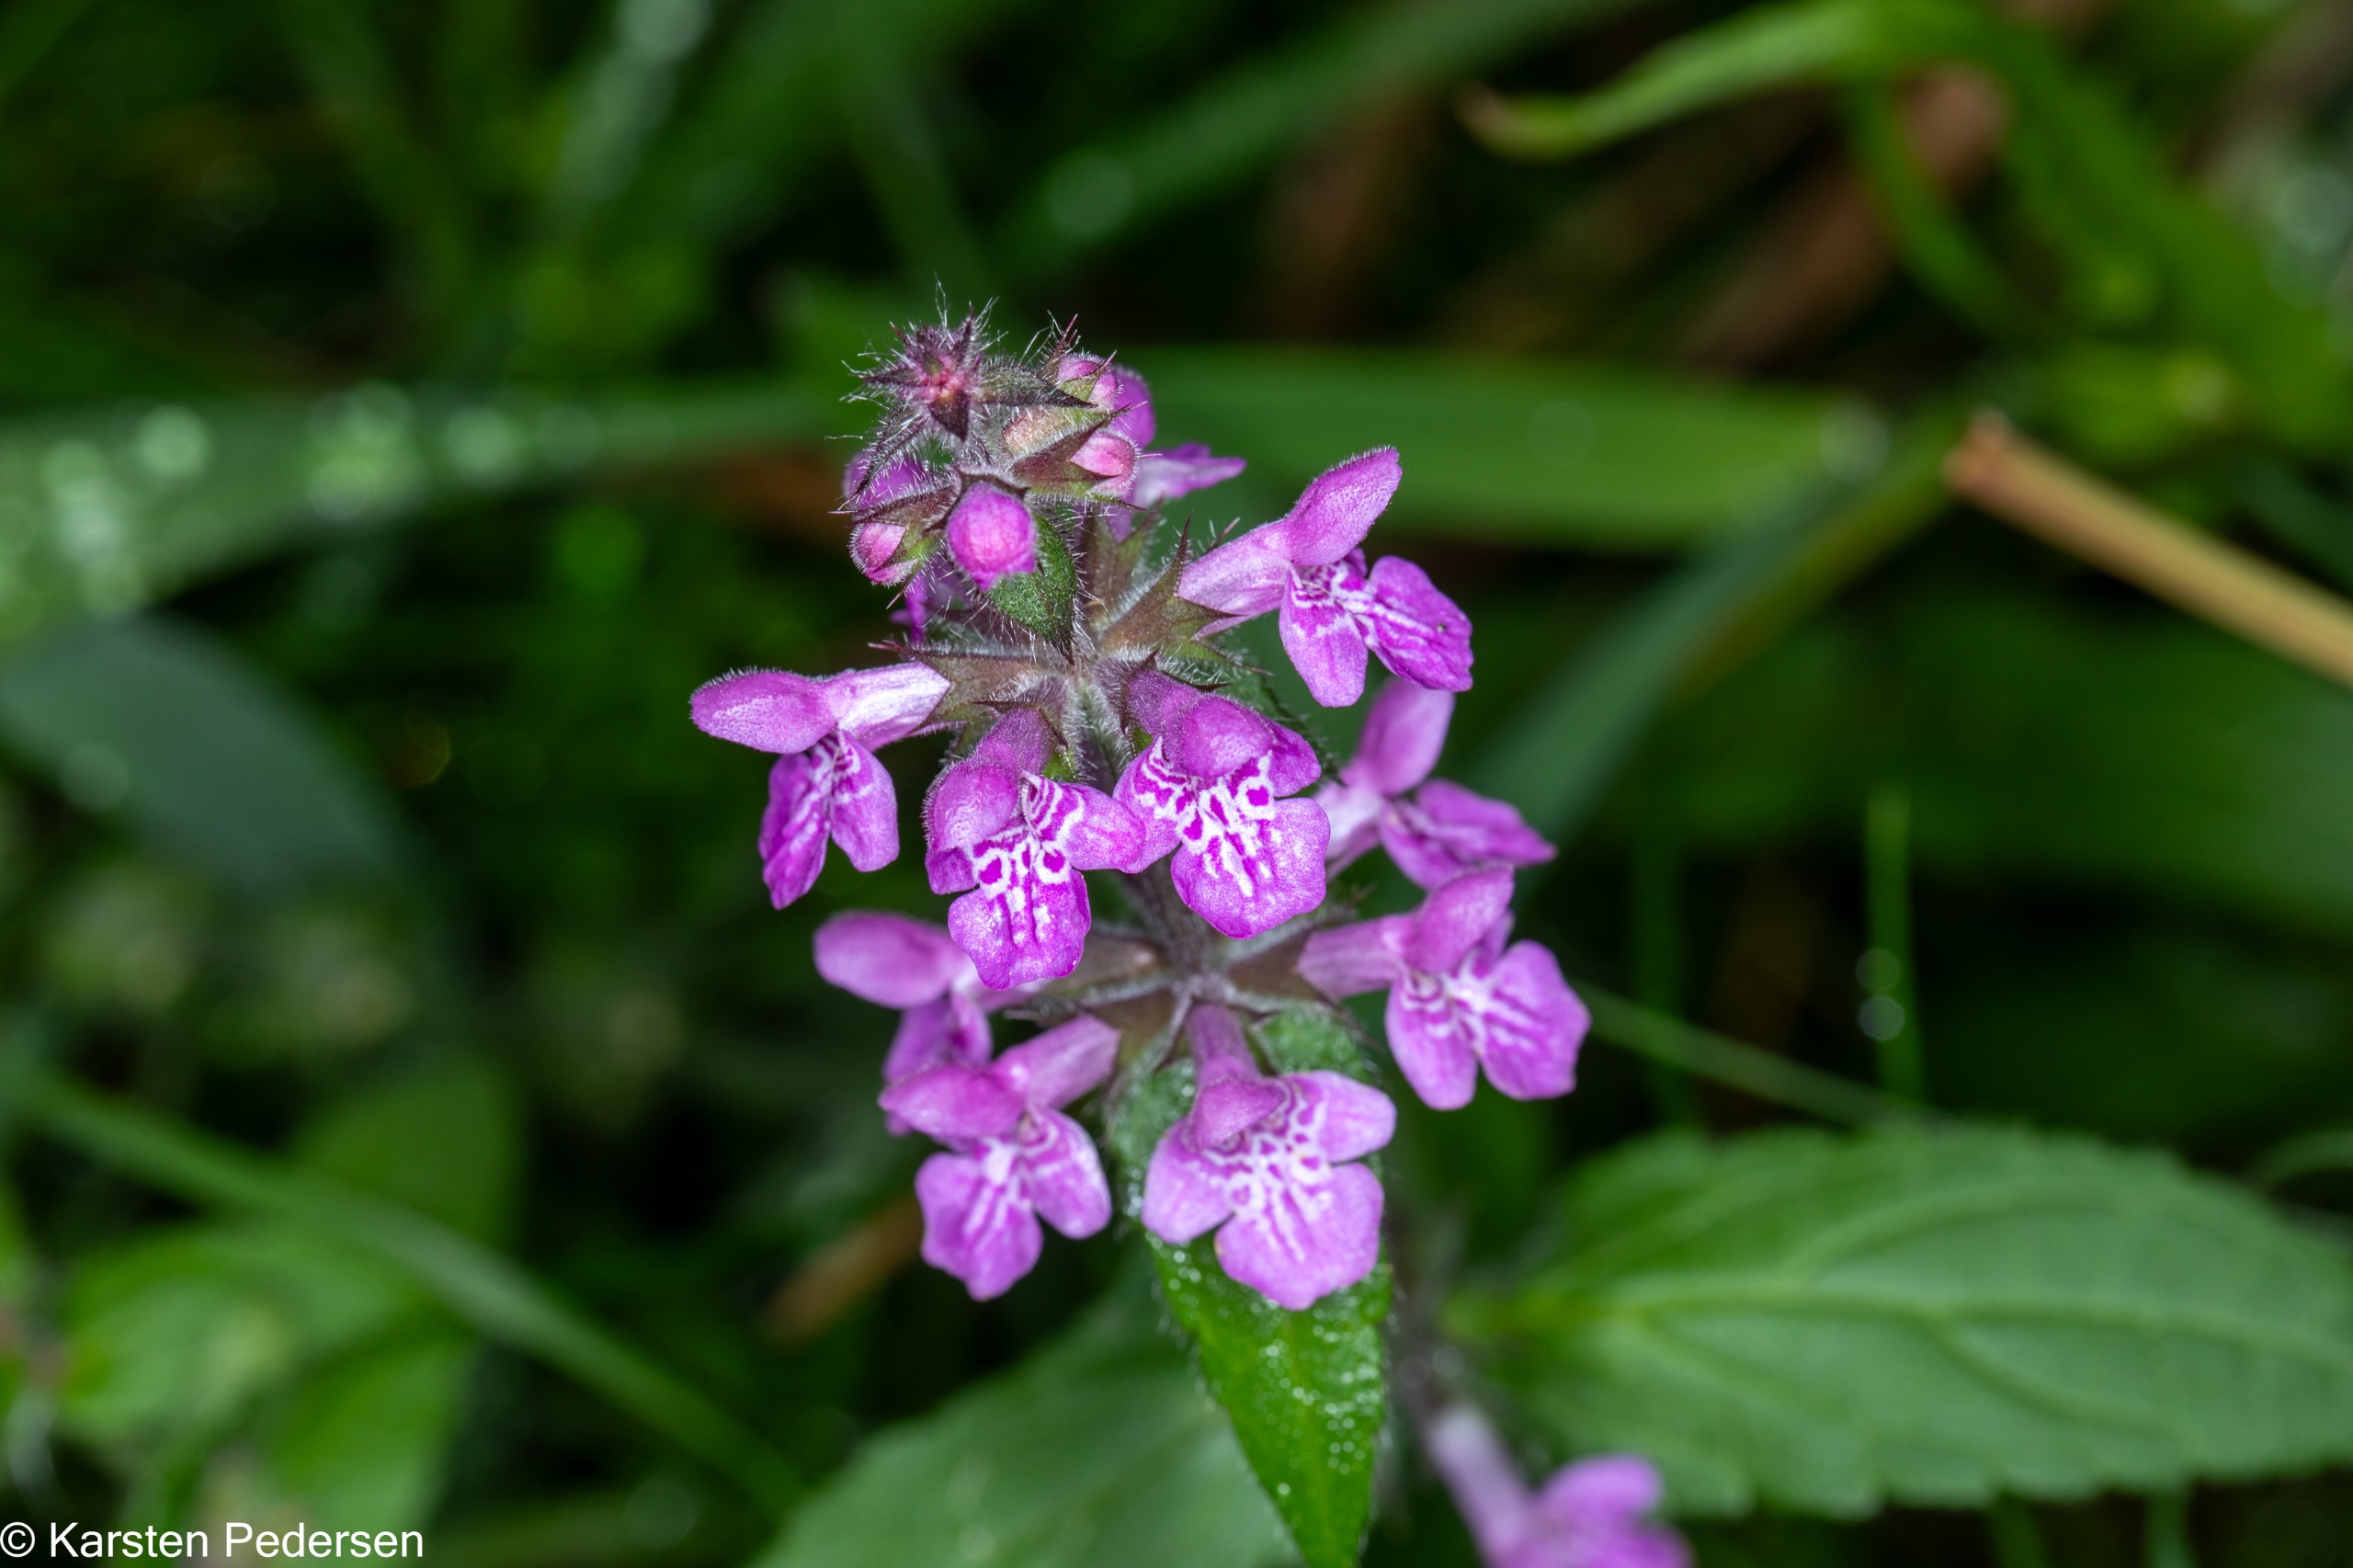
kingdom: Plantae
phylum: Tracheophyta
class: Magnoliopsida
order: Lamiales
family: Lamiaceae
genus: Stachys
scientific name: Stachys palustris
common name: Kær-galtetand
